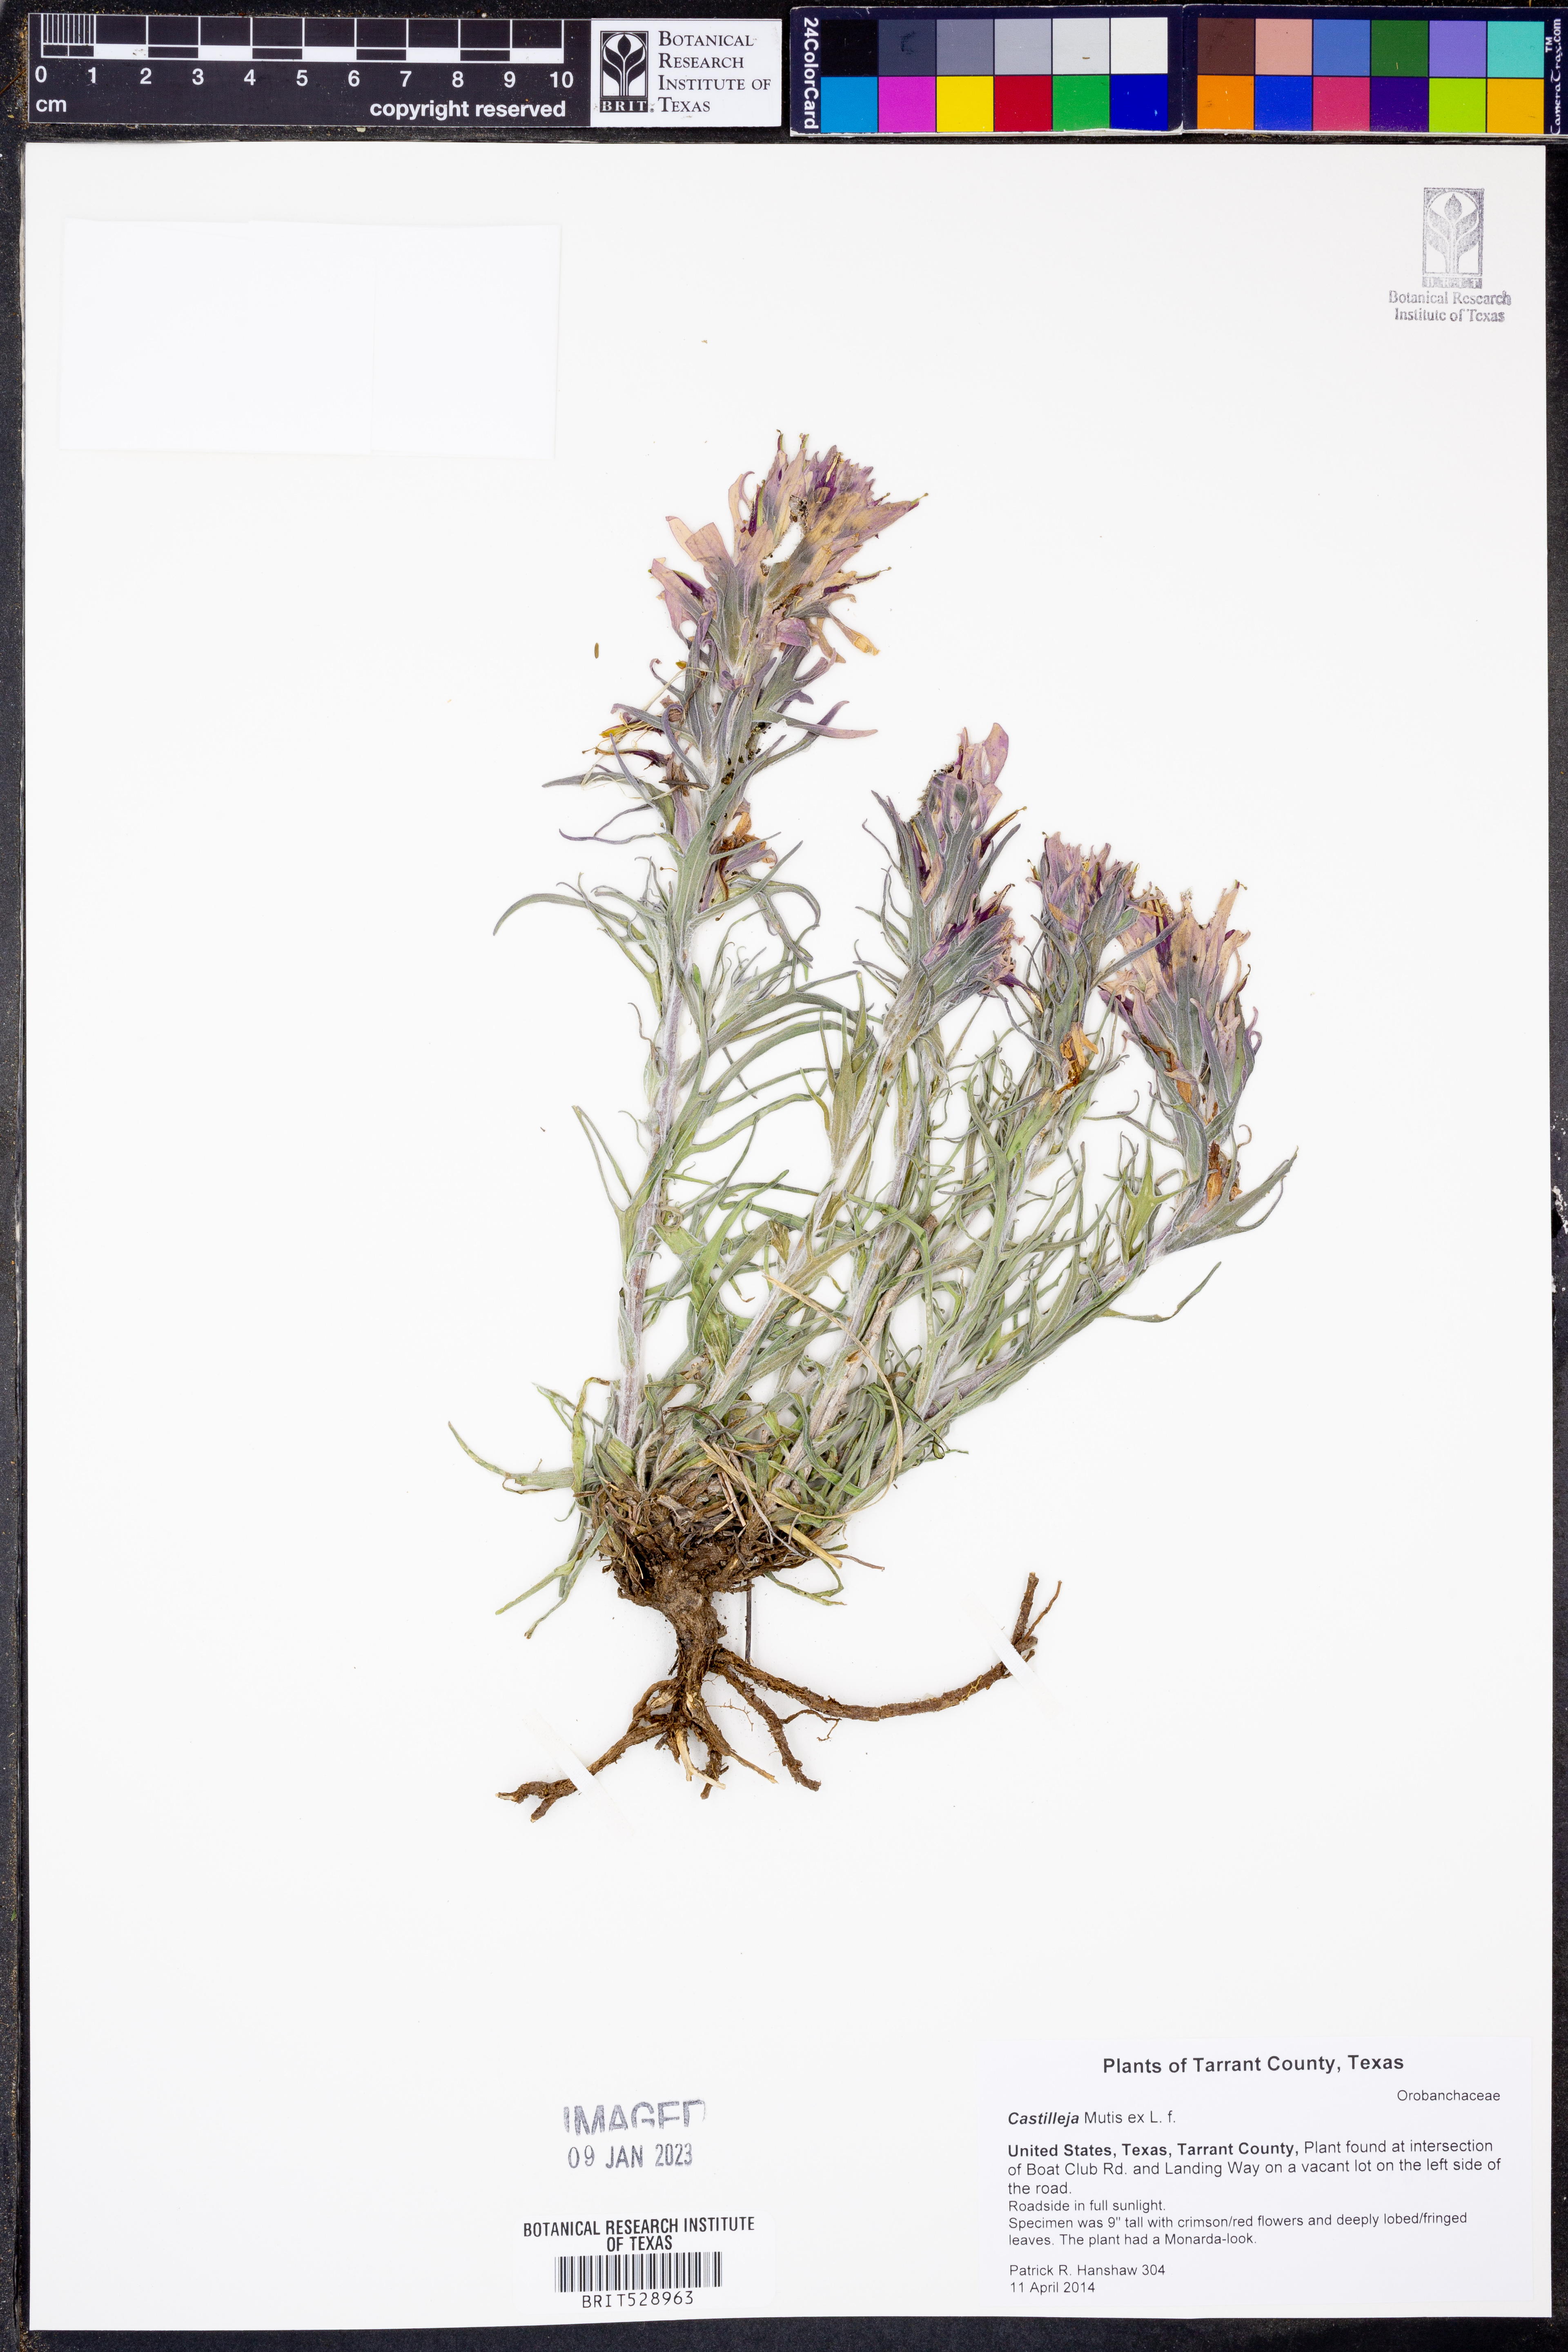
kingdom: Plantae
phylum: Tracheophyta
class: Magnoliopsida
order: Lamiales
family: Orobanchaceae
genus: Castilleja
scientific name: Castilleja
